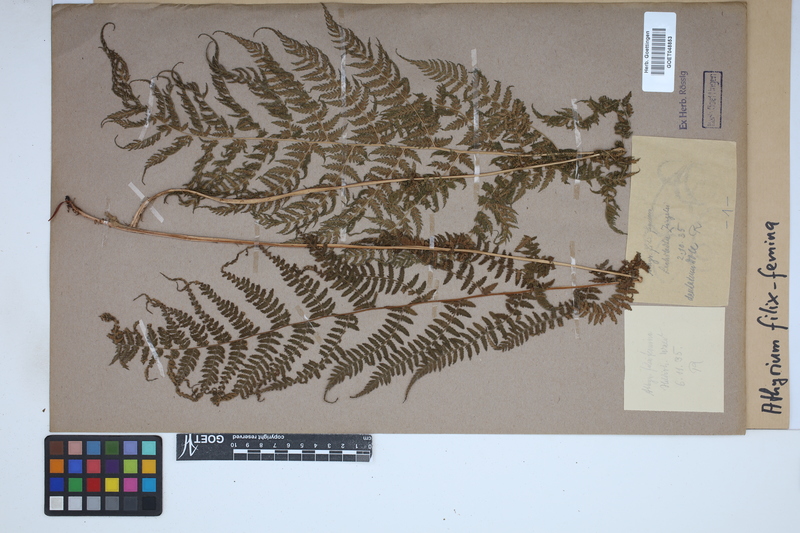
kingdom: Plantae
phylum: Tracheophyta
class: Polypodiopsida
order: Polypodiales
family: Athyriaceae
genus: Athyrium
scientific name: Athyrium filix-femina
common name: Lady fern
